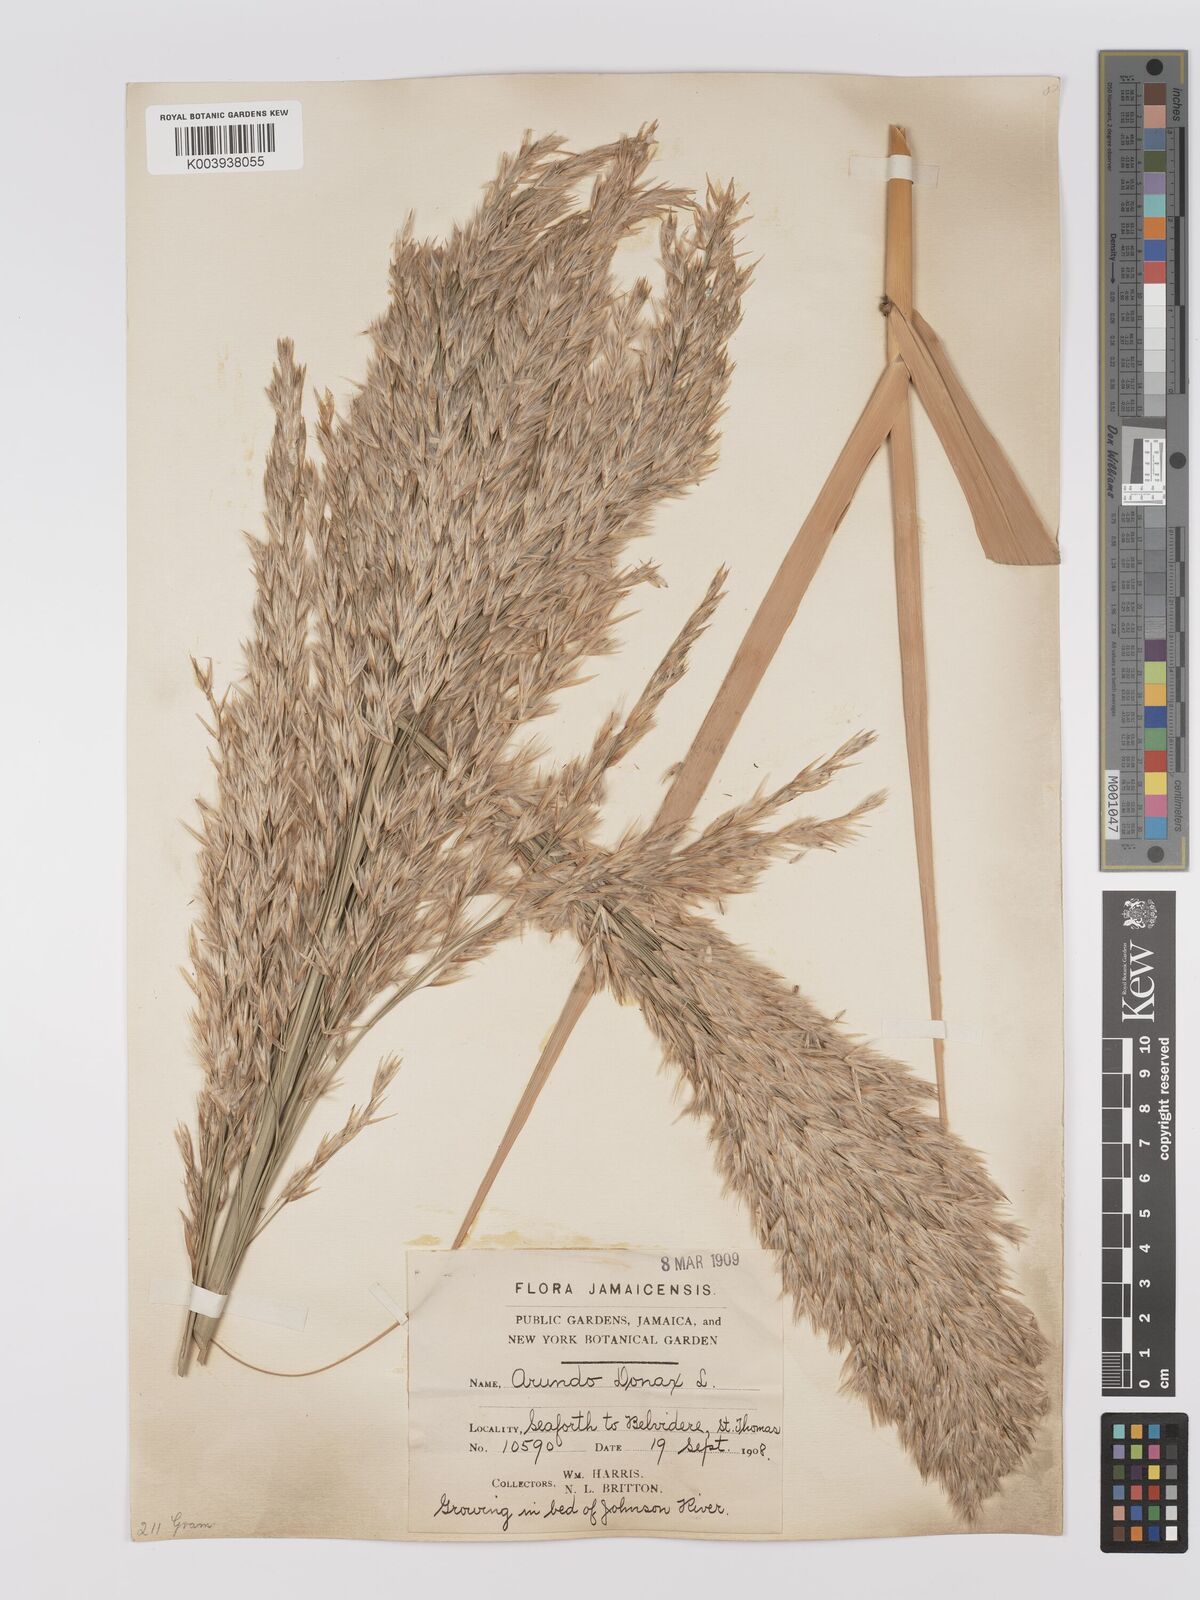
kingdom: Plantae
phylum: Tracheophyta
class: Liliopsida
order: Poales
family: Poaceae
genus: Arundo
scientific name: Arundo donax
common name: Giant reed
